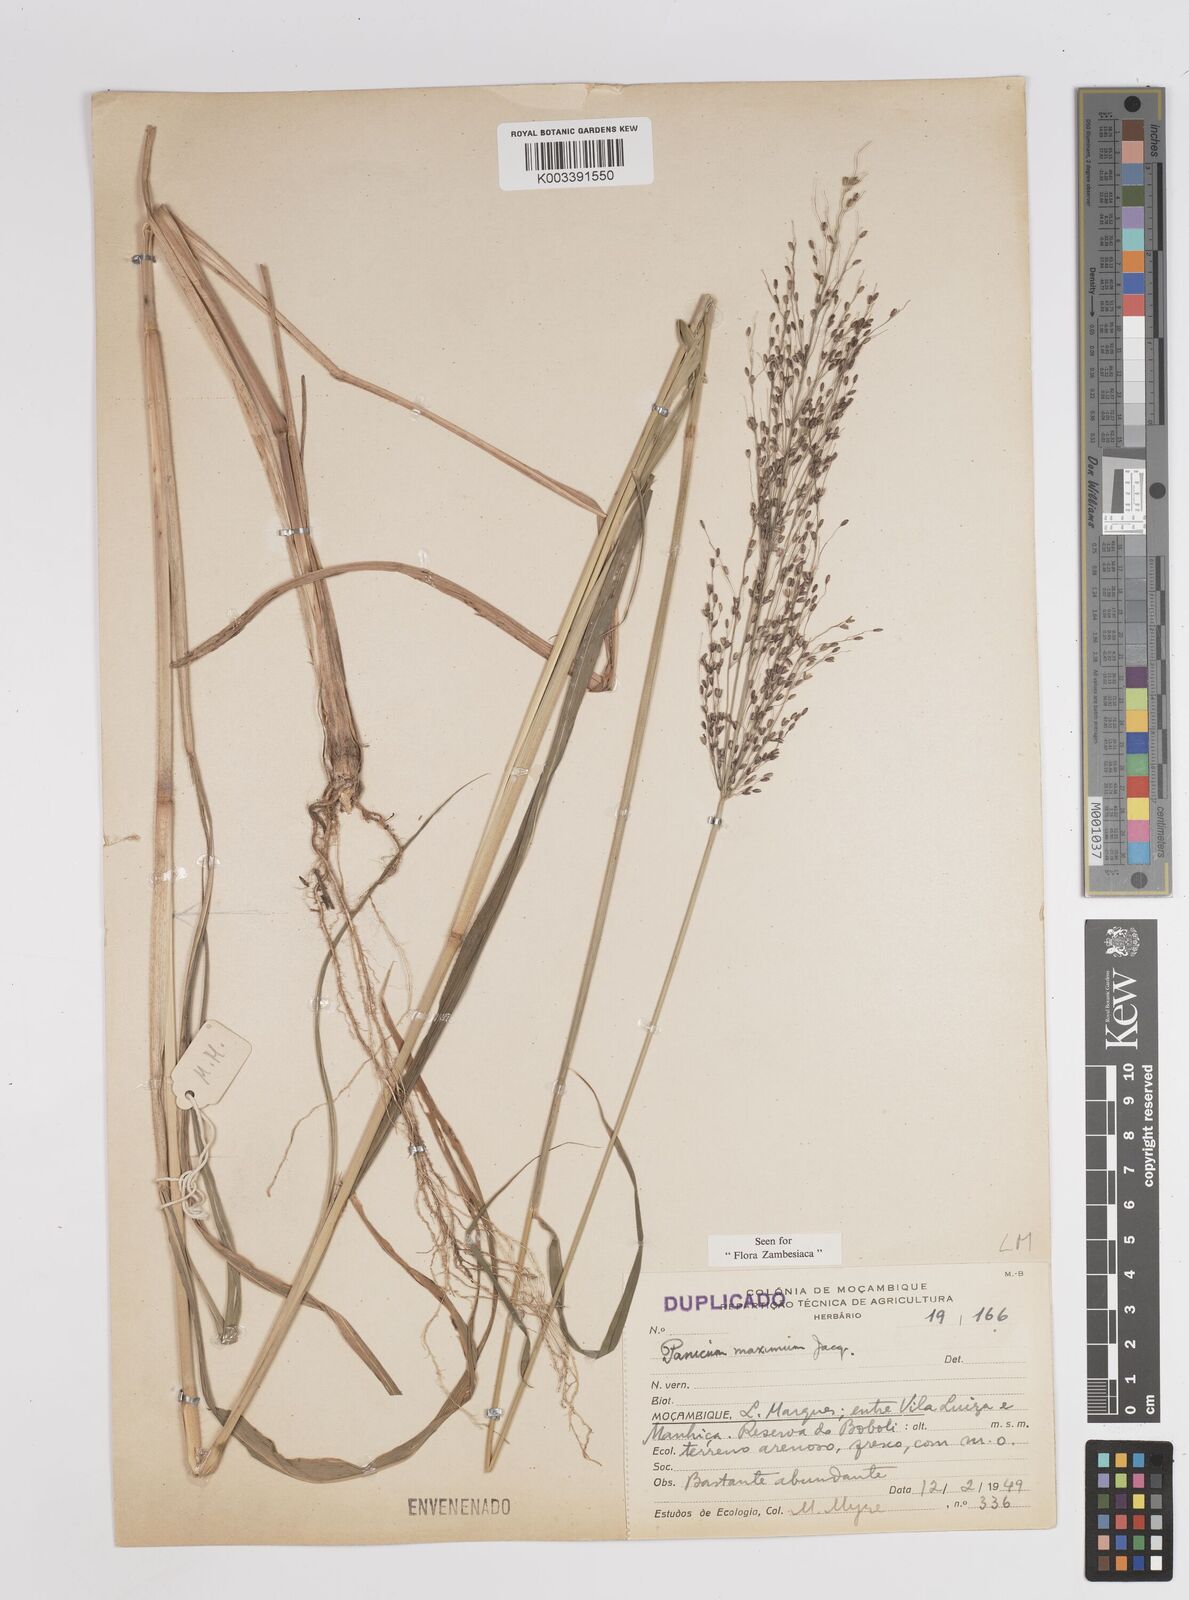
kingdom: Plantae
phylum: Tracheophyta
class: Liliopsida
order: Poales
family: Poaceae
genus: Megathyrsus
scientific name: Megathyrsus maximus
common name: Guineagrass
